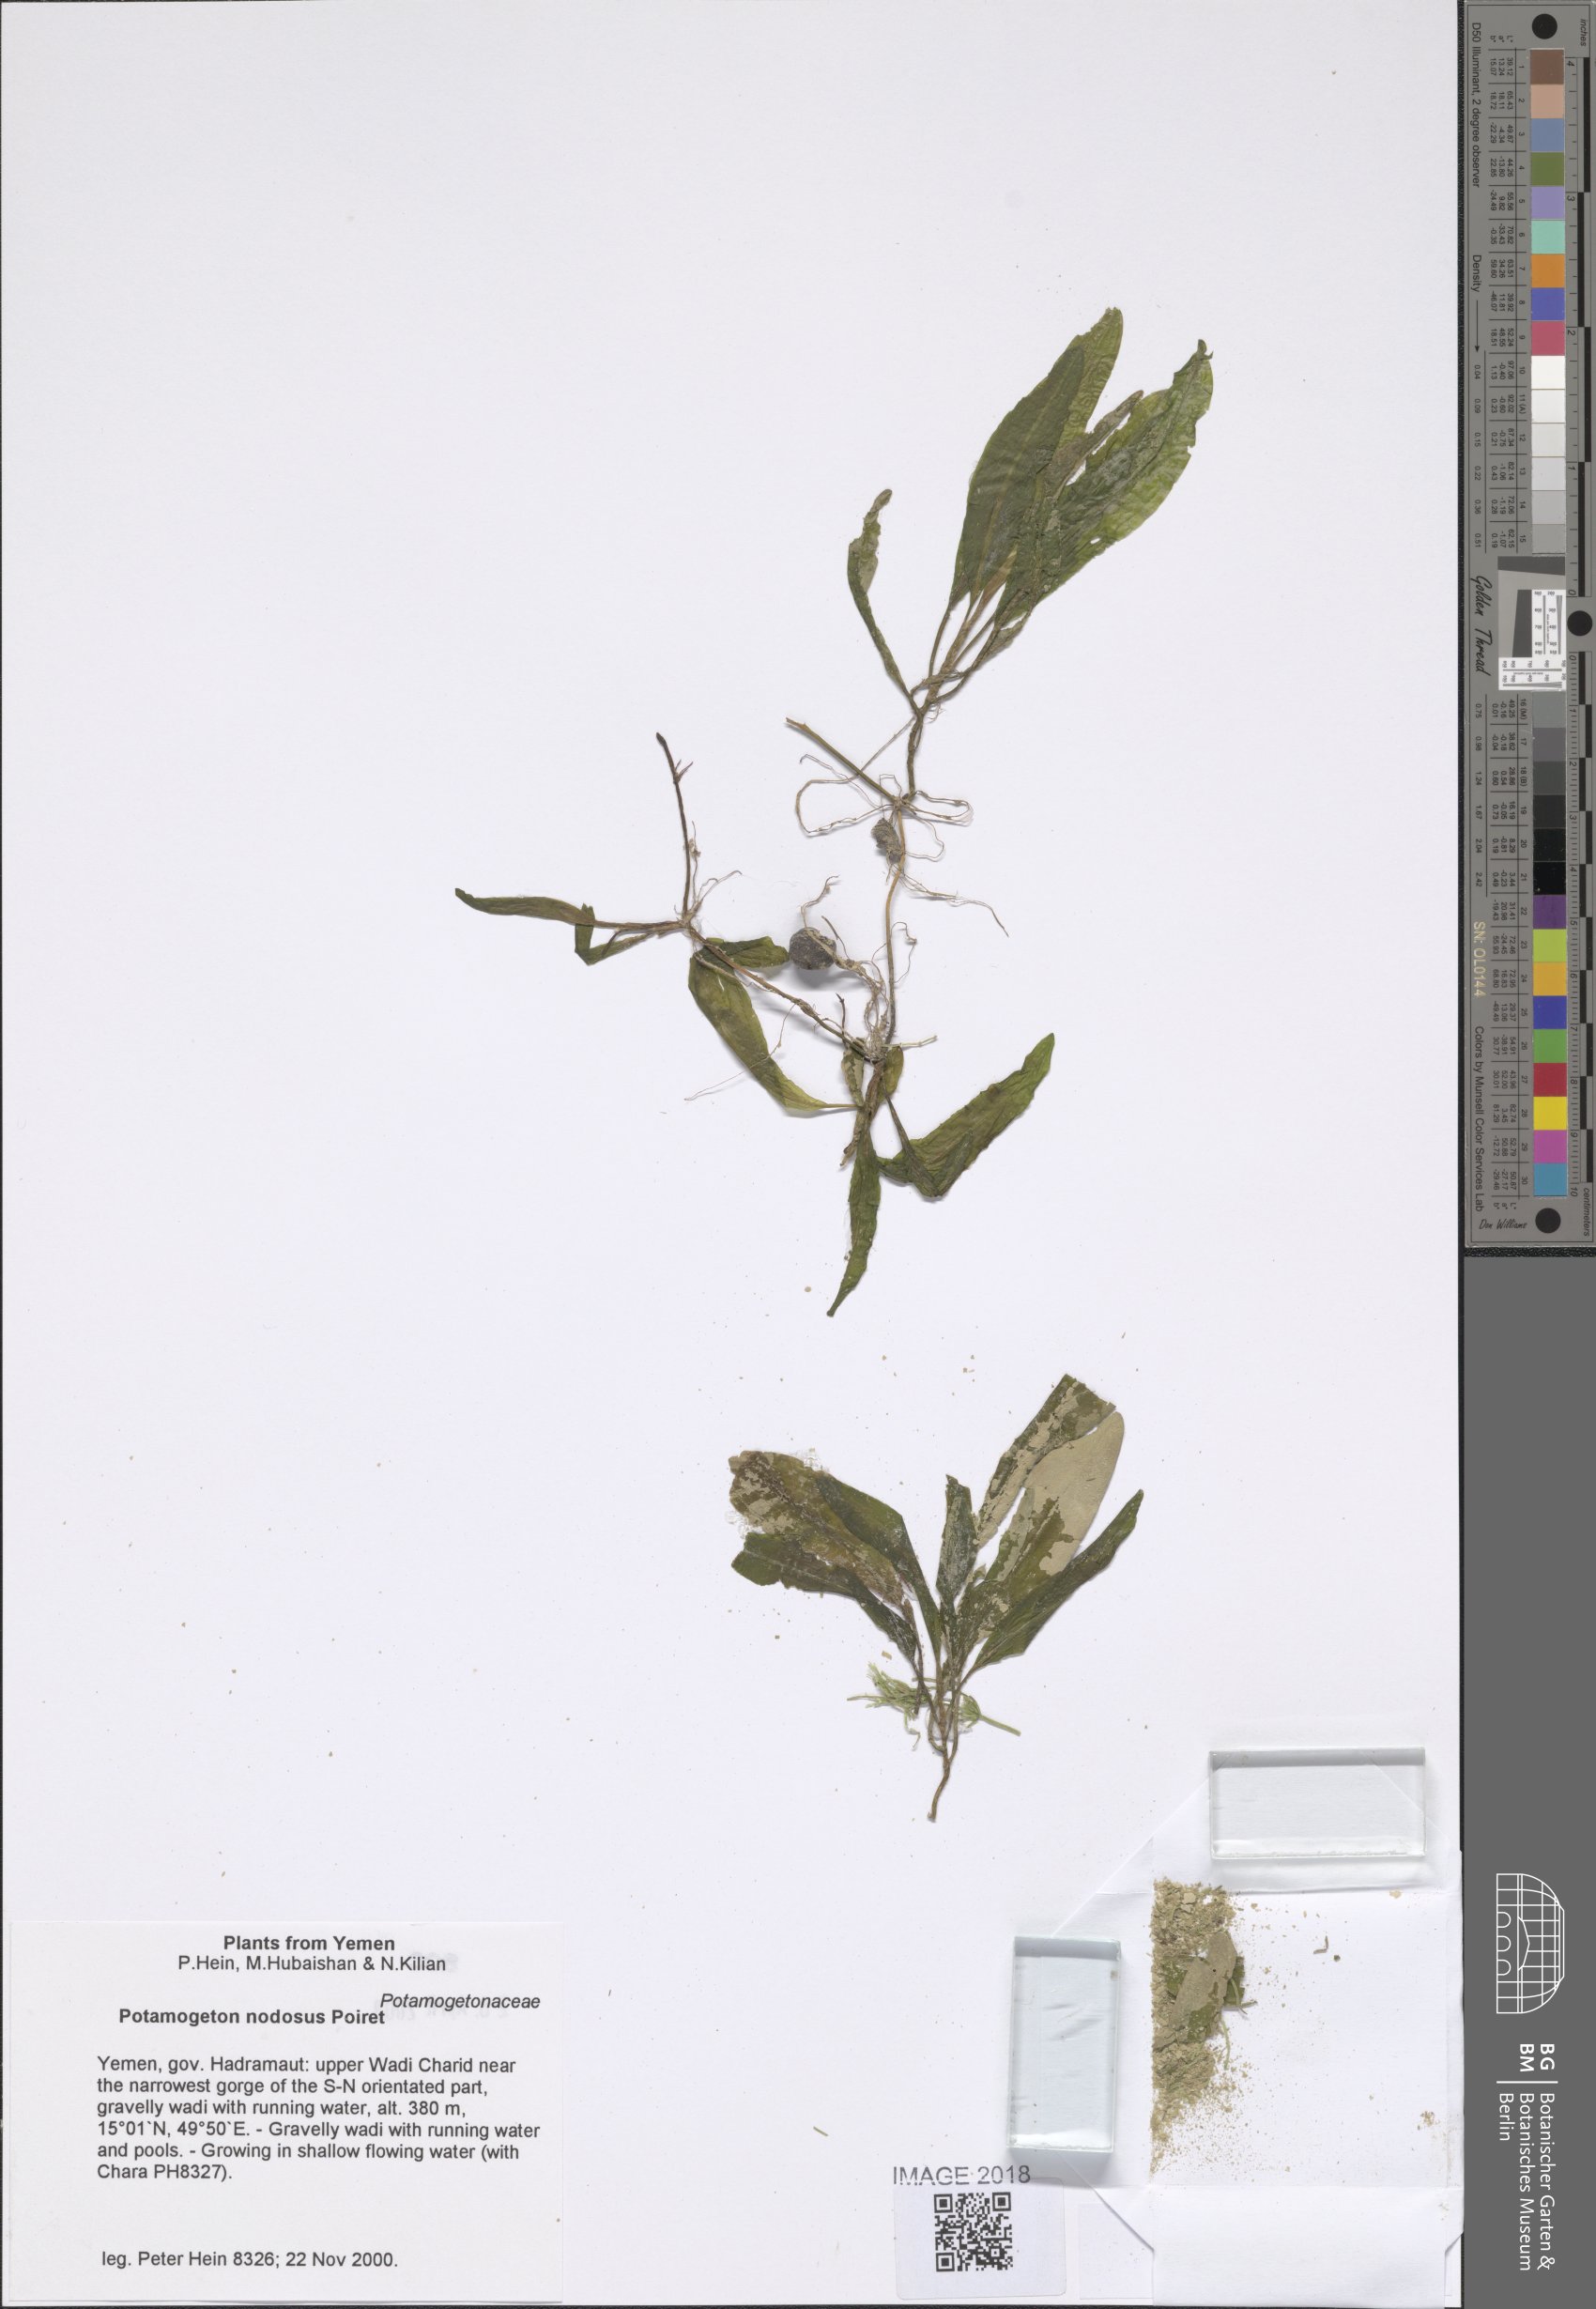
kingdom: Plantae
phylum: Tracheophyta
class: Liliopsida
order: Alismatales
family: Potamogetonaceae
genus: Potamogeton
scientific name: Potamogeton nodosus
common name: Loddon pondweed
